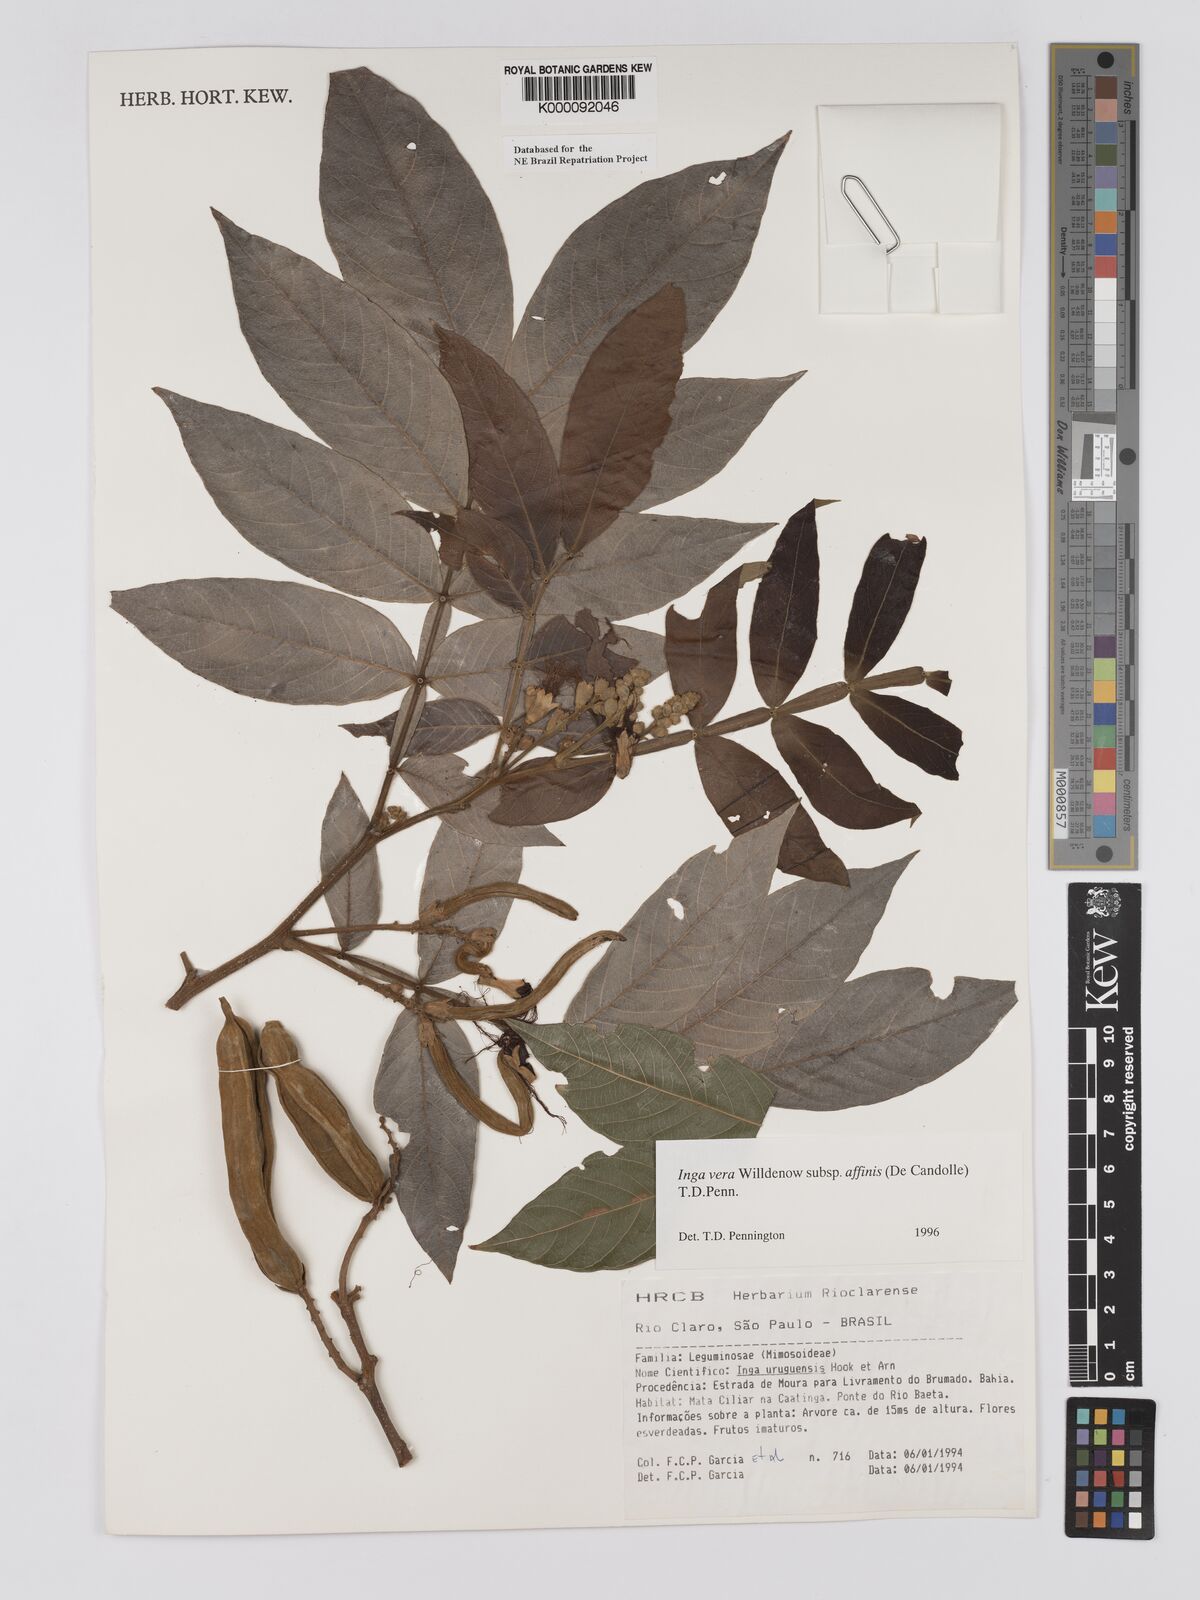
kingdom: Plantae
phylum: Tracheophyta
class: Magnoliopsida
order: Fabales
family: Fabaceae
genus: Inga
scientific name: Inga affinis
